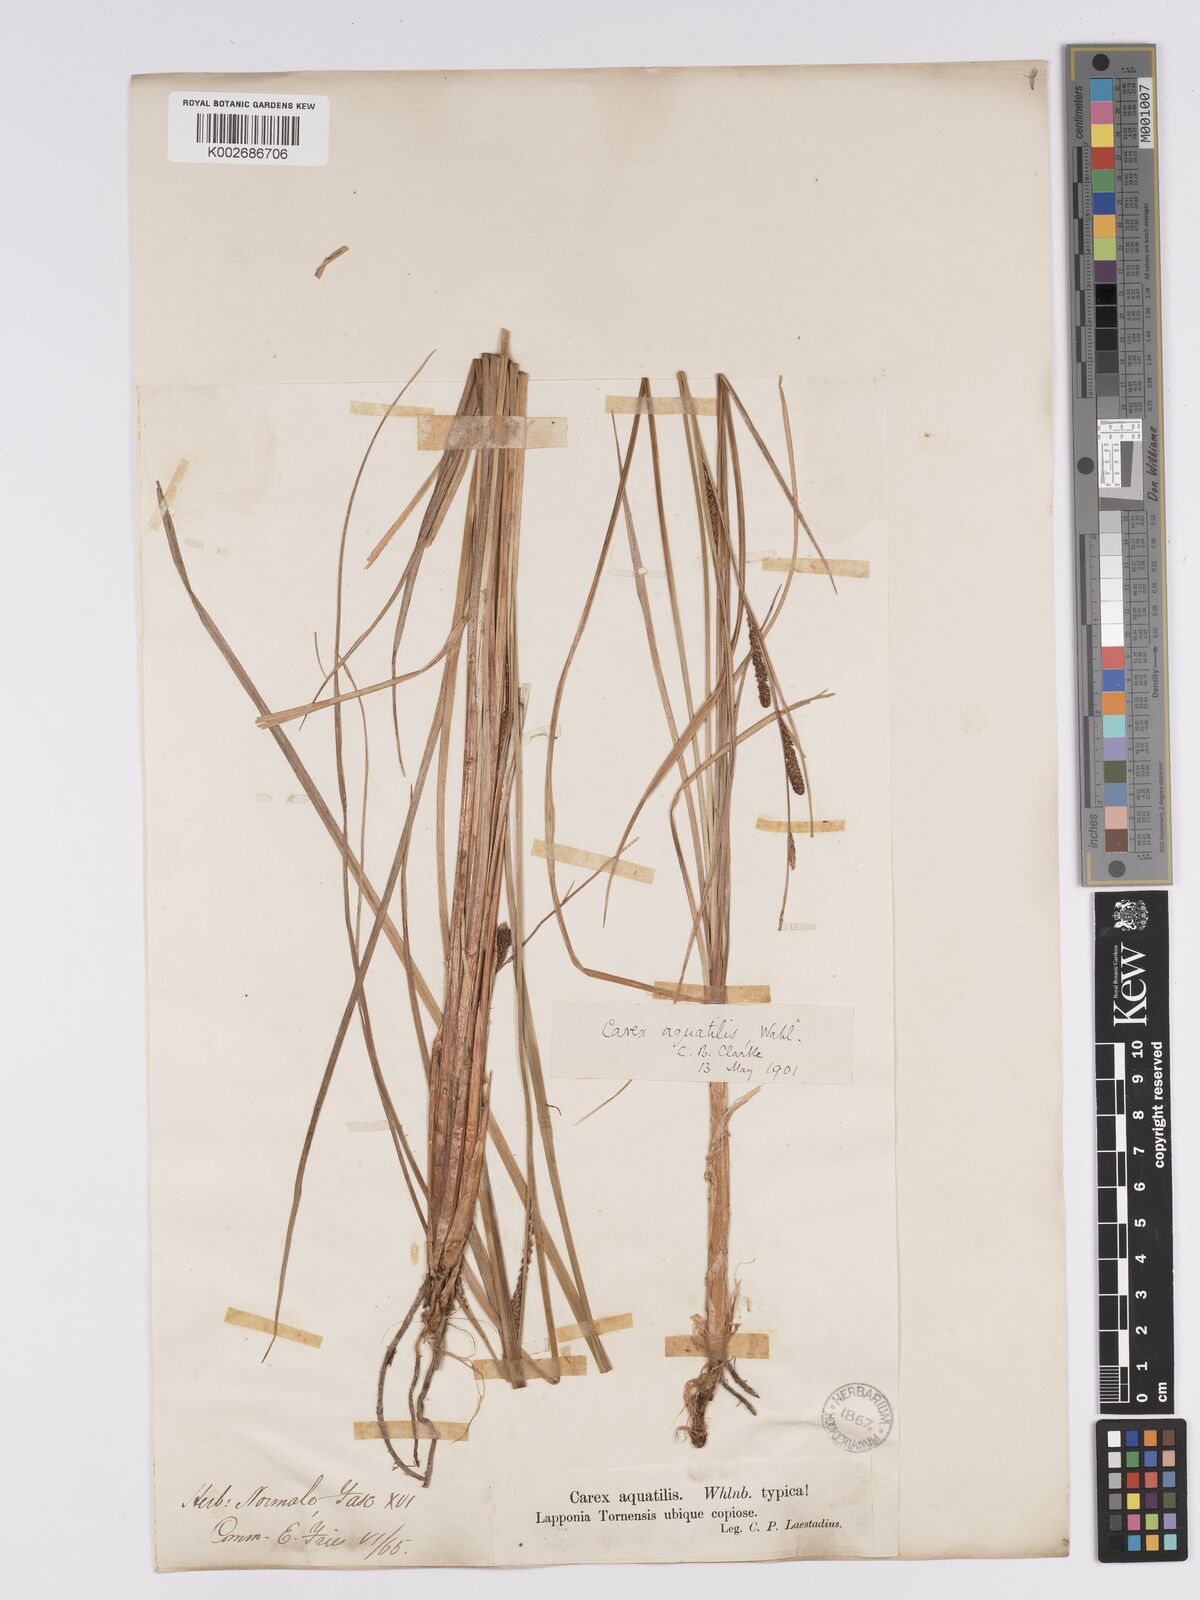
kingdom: Plantae
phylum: Tracheophyta
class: Liliopsida
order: Poales
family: Cyperaceae
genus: Carex
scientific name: Carex aquatilis
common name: Water sedge
